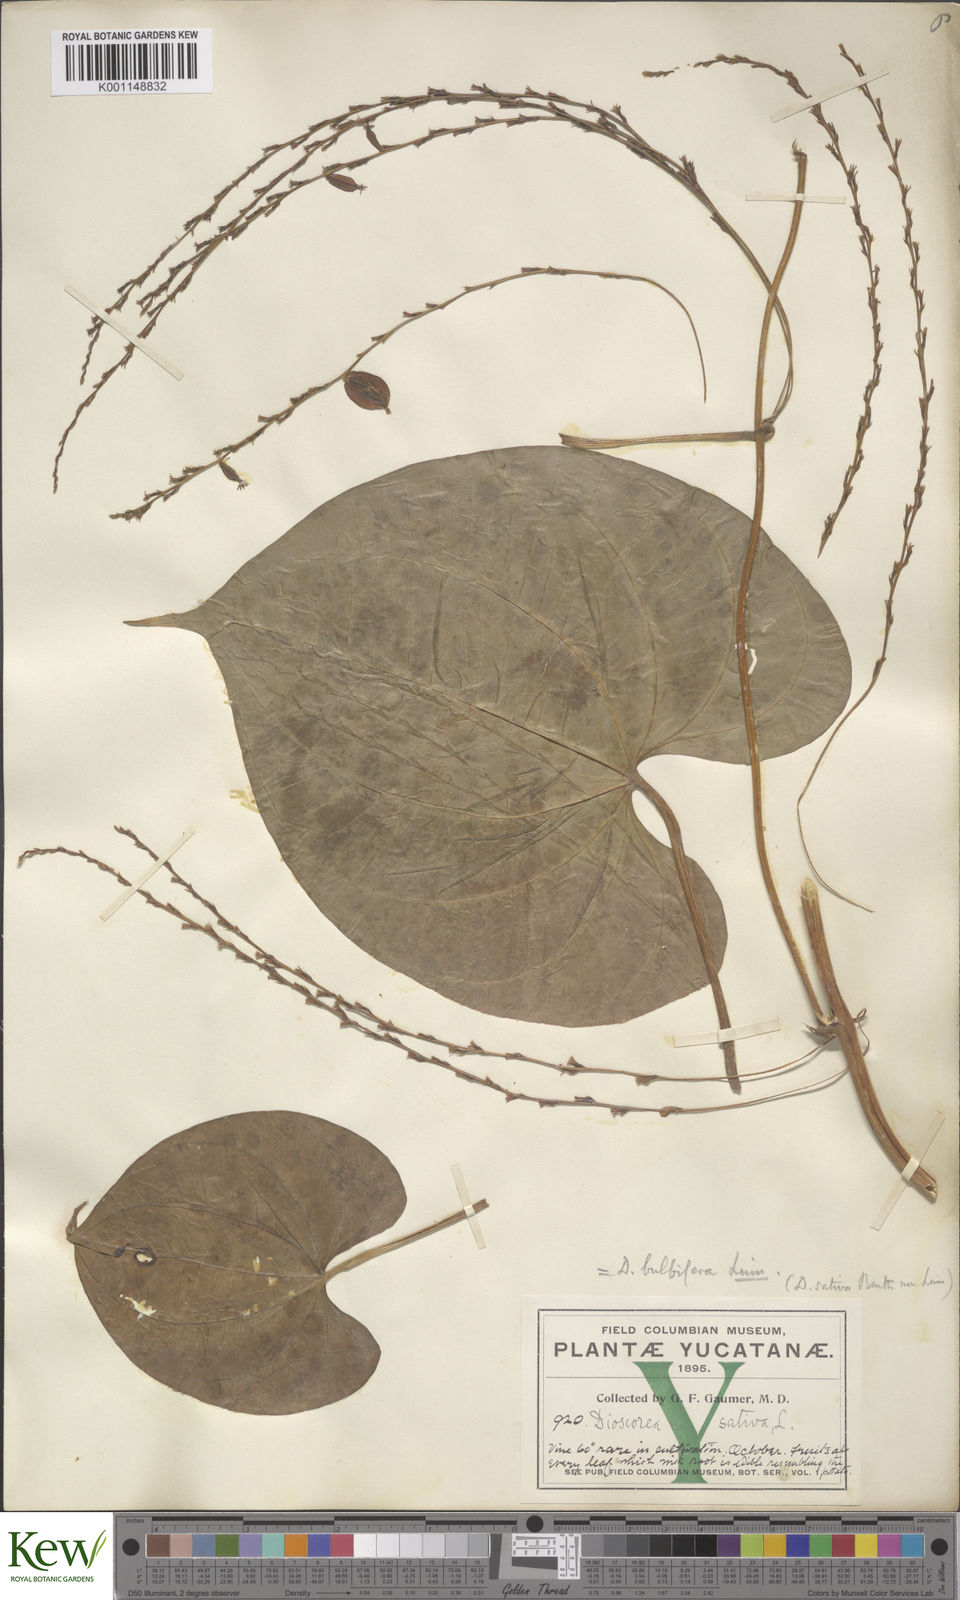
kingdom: Plantae
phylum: Tracheophyta
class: Liliopsida
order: Dioscoreales
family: Dioscoreaceae
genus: Dioscorea
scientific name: Dioscorea bulbifera
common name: Air yam
